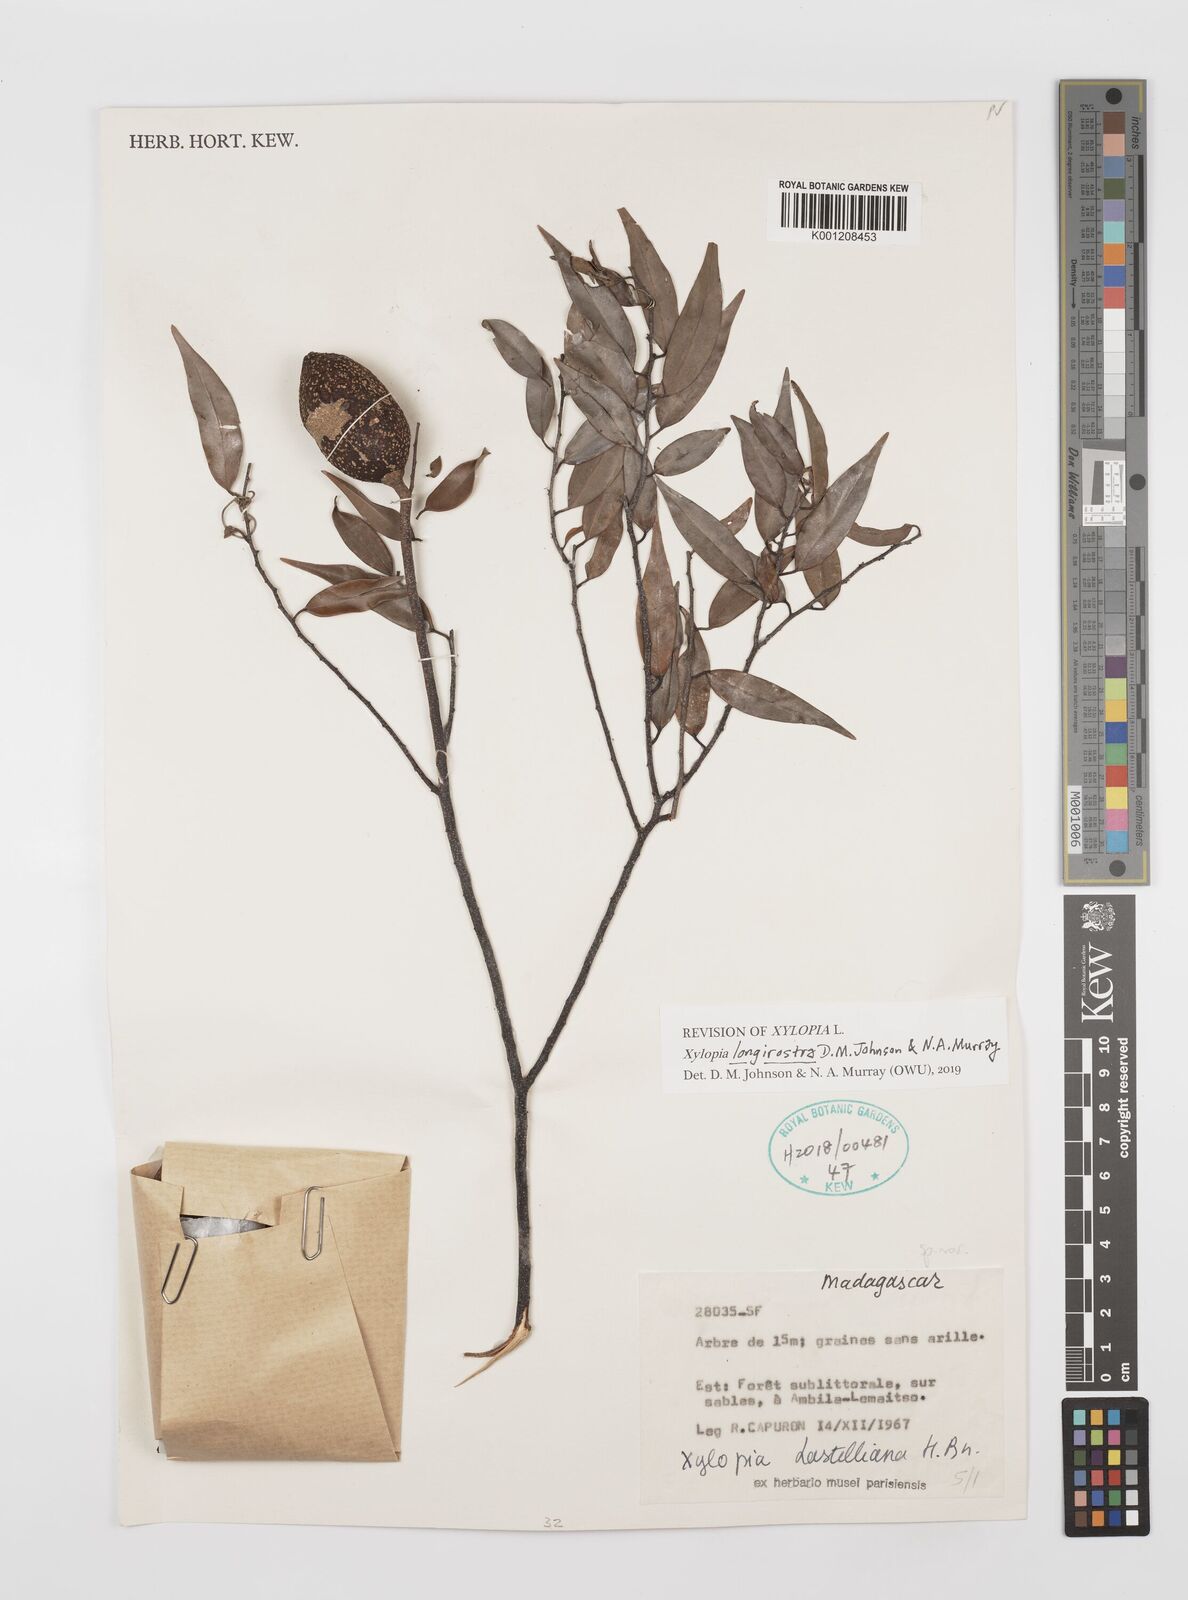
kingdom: Plantae
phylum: Tracheophyta
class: Magnoliopsida
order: Magnoliales
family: Annonaceae
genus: Xylopia
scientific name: Xylopia lastelliana
